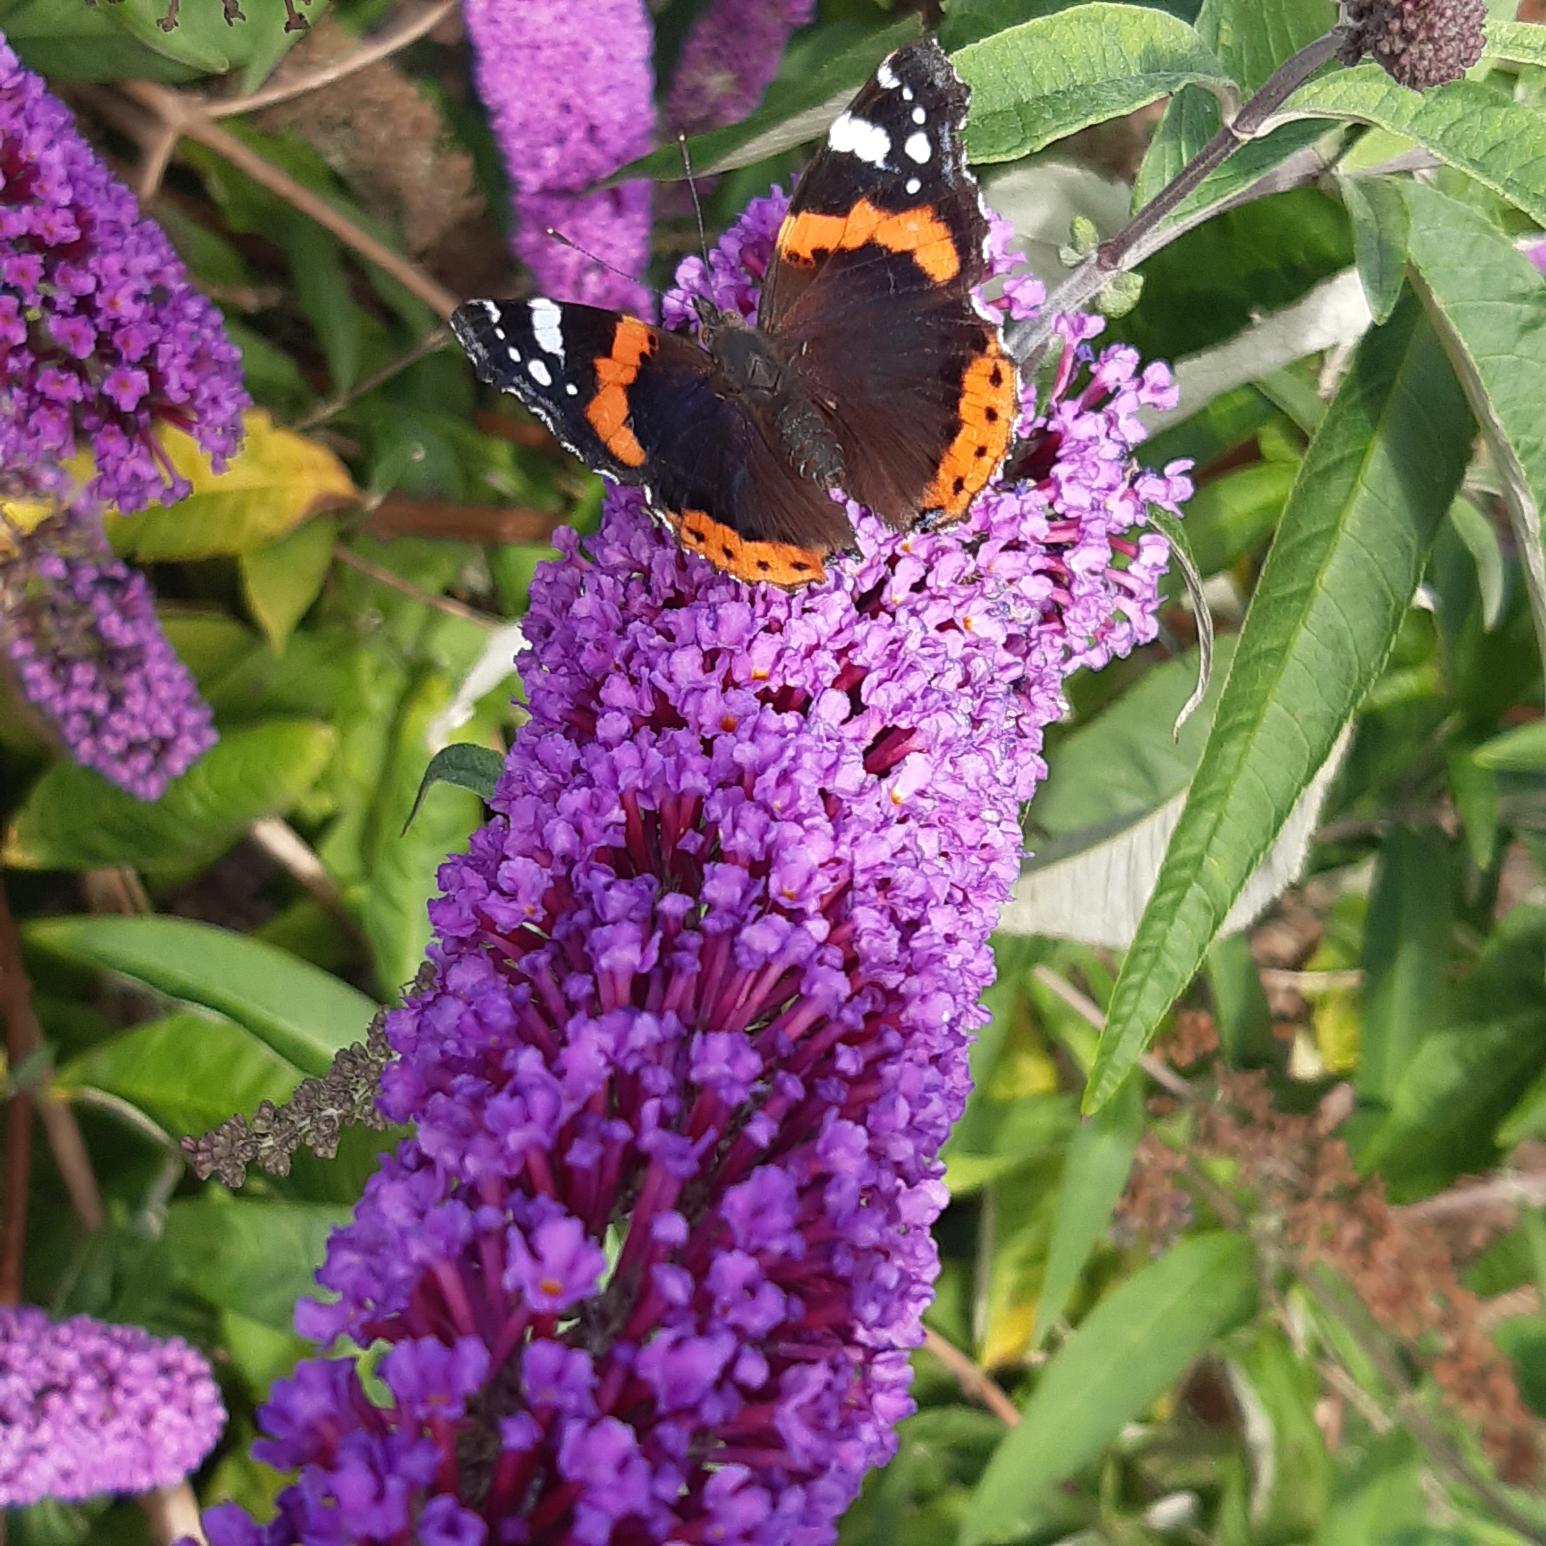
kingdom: Animalia
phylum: Arthropoda
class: Insecta
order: Lepidoptera
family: Nymphalidae
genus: Vanessa
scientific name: Vanessa atalanta
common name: Admiral
